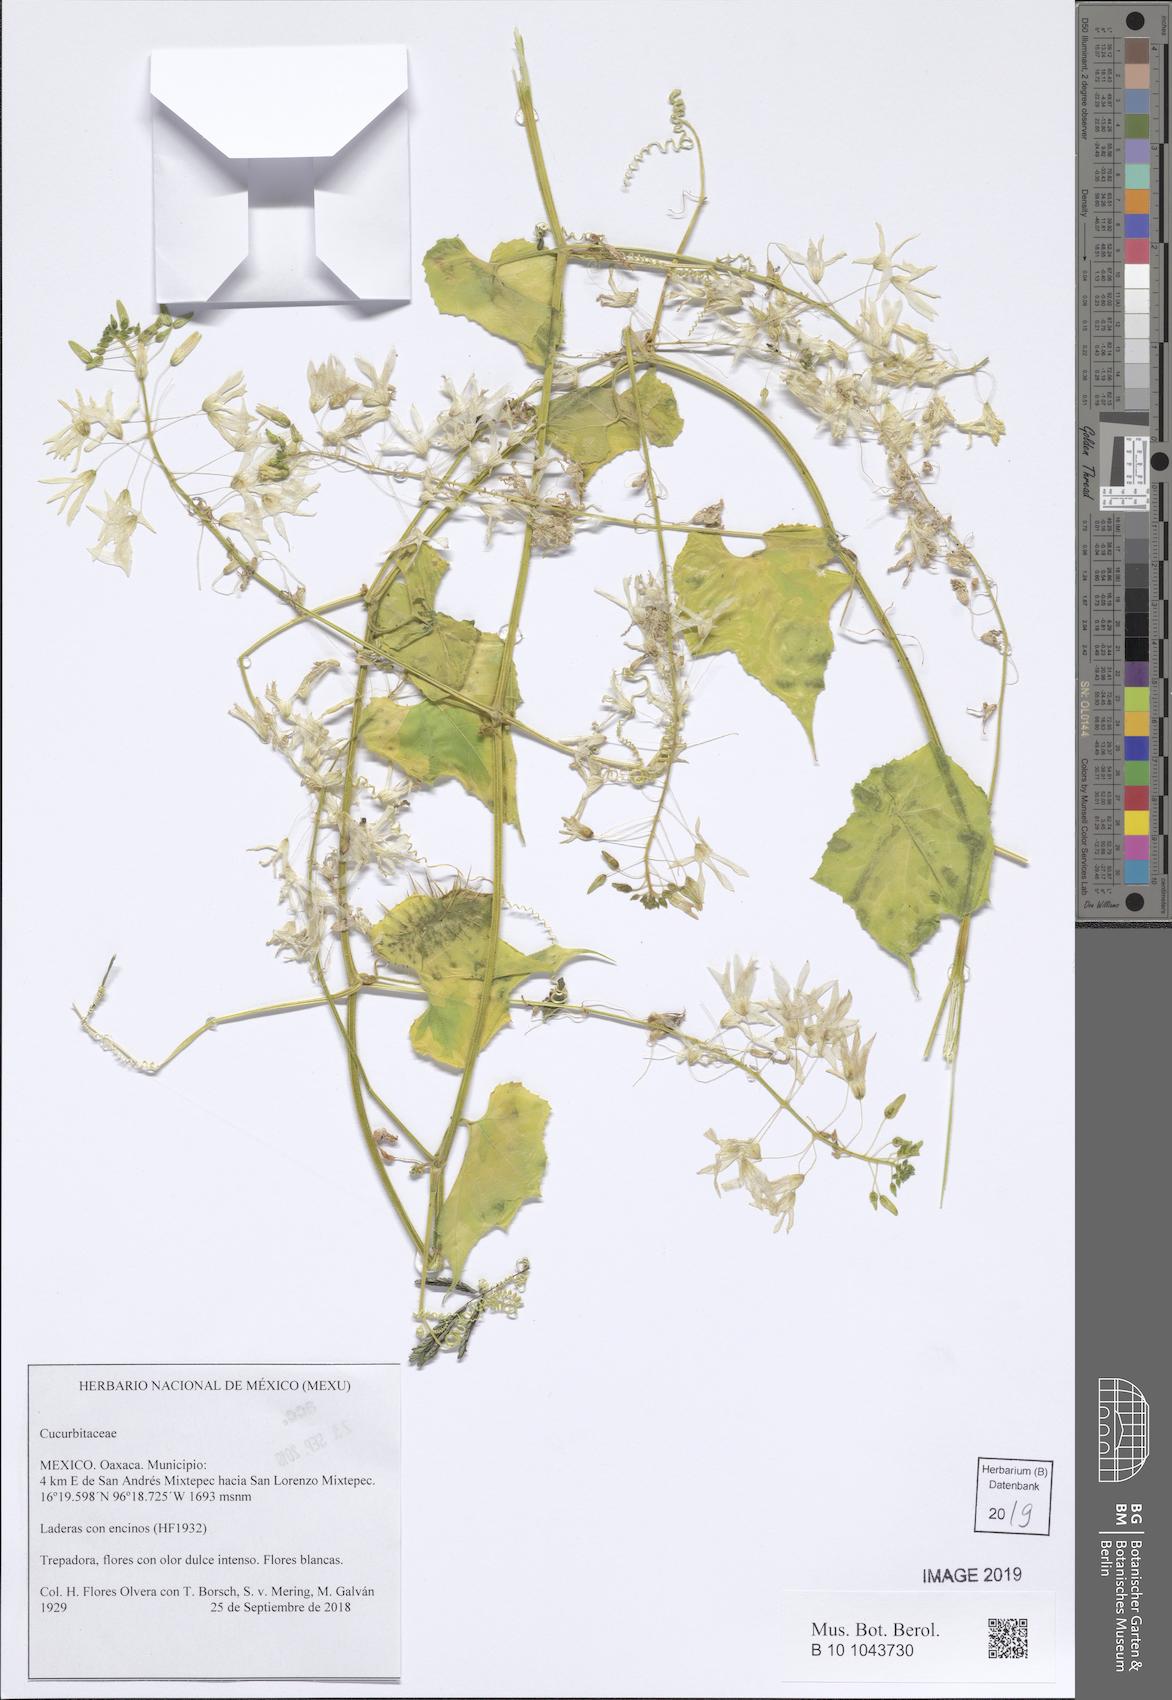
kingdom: Plantae
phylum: Tracheophyta
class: Magnoliopsida
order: Cucurbitales
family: Cucurbitaceae
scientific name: Cucurbitaceae
